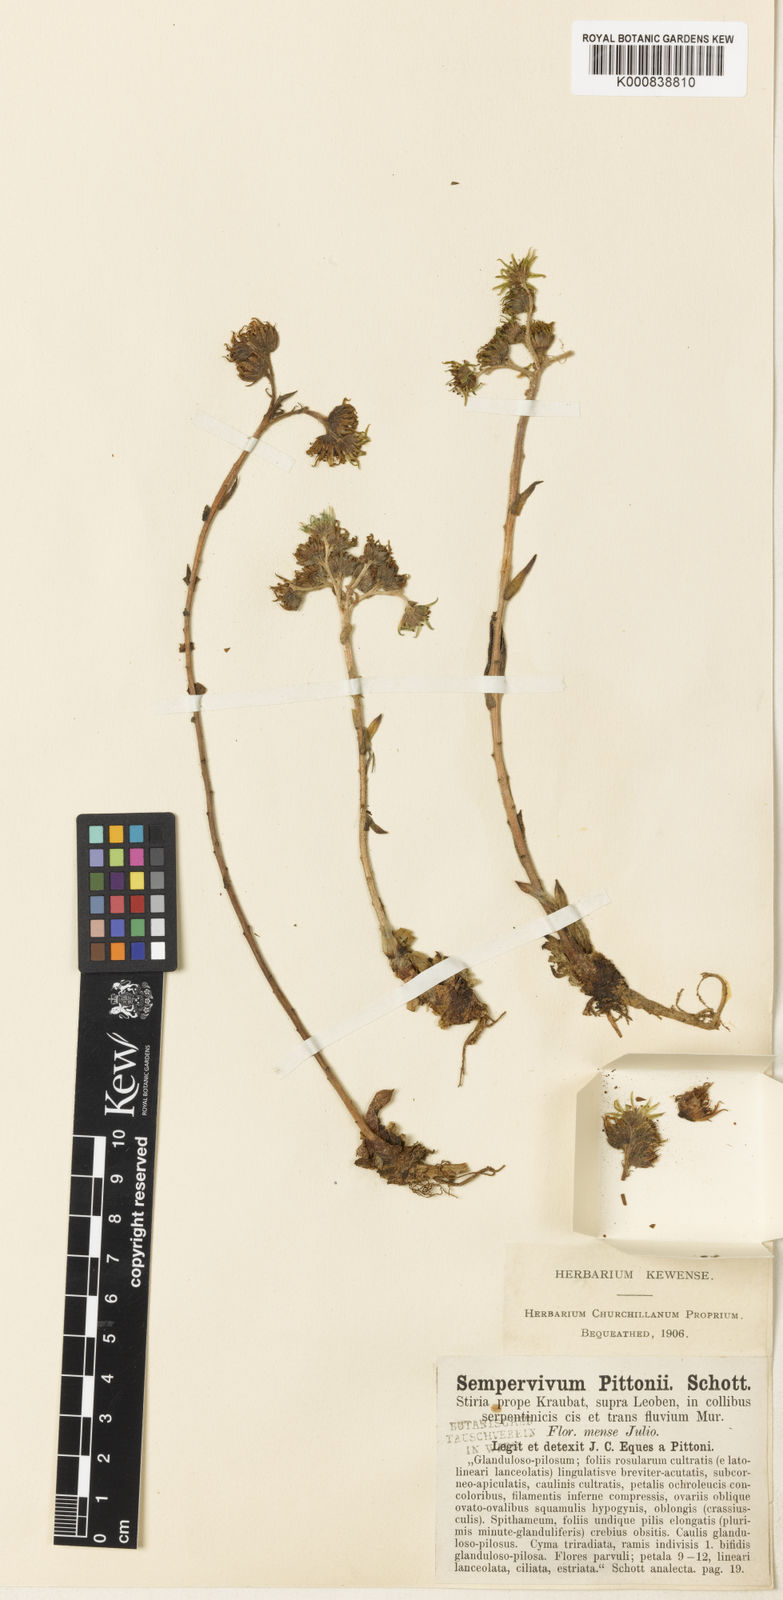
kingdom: Plantae
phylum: Tracheophyta
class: Magnoliopsida
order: Saxifragales
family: Crassulaceae
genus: Sempervivum
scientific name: Sempervivum pittonii
